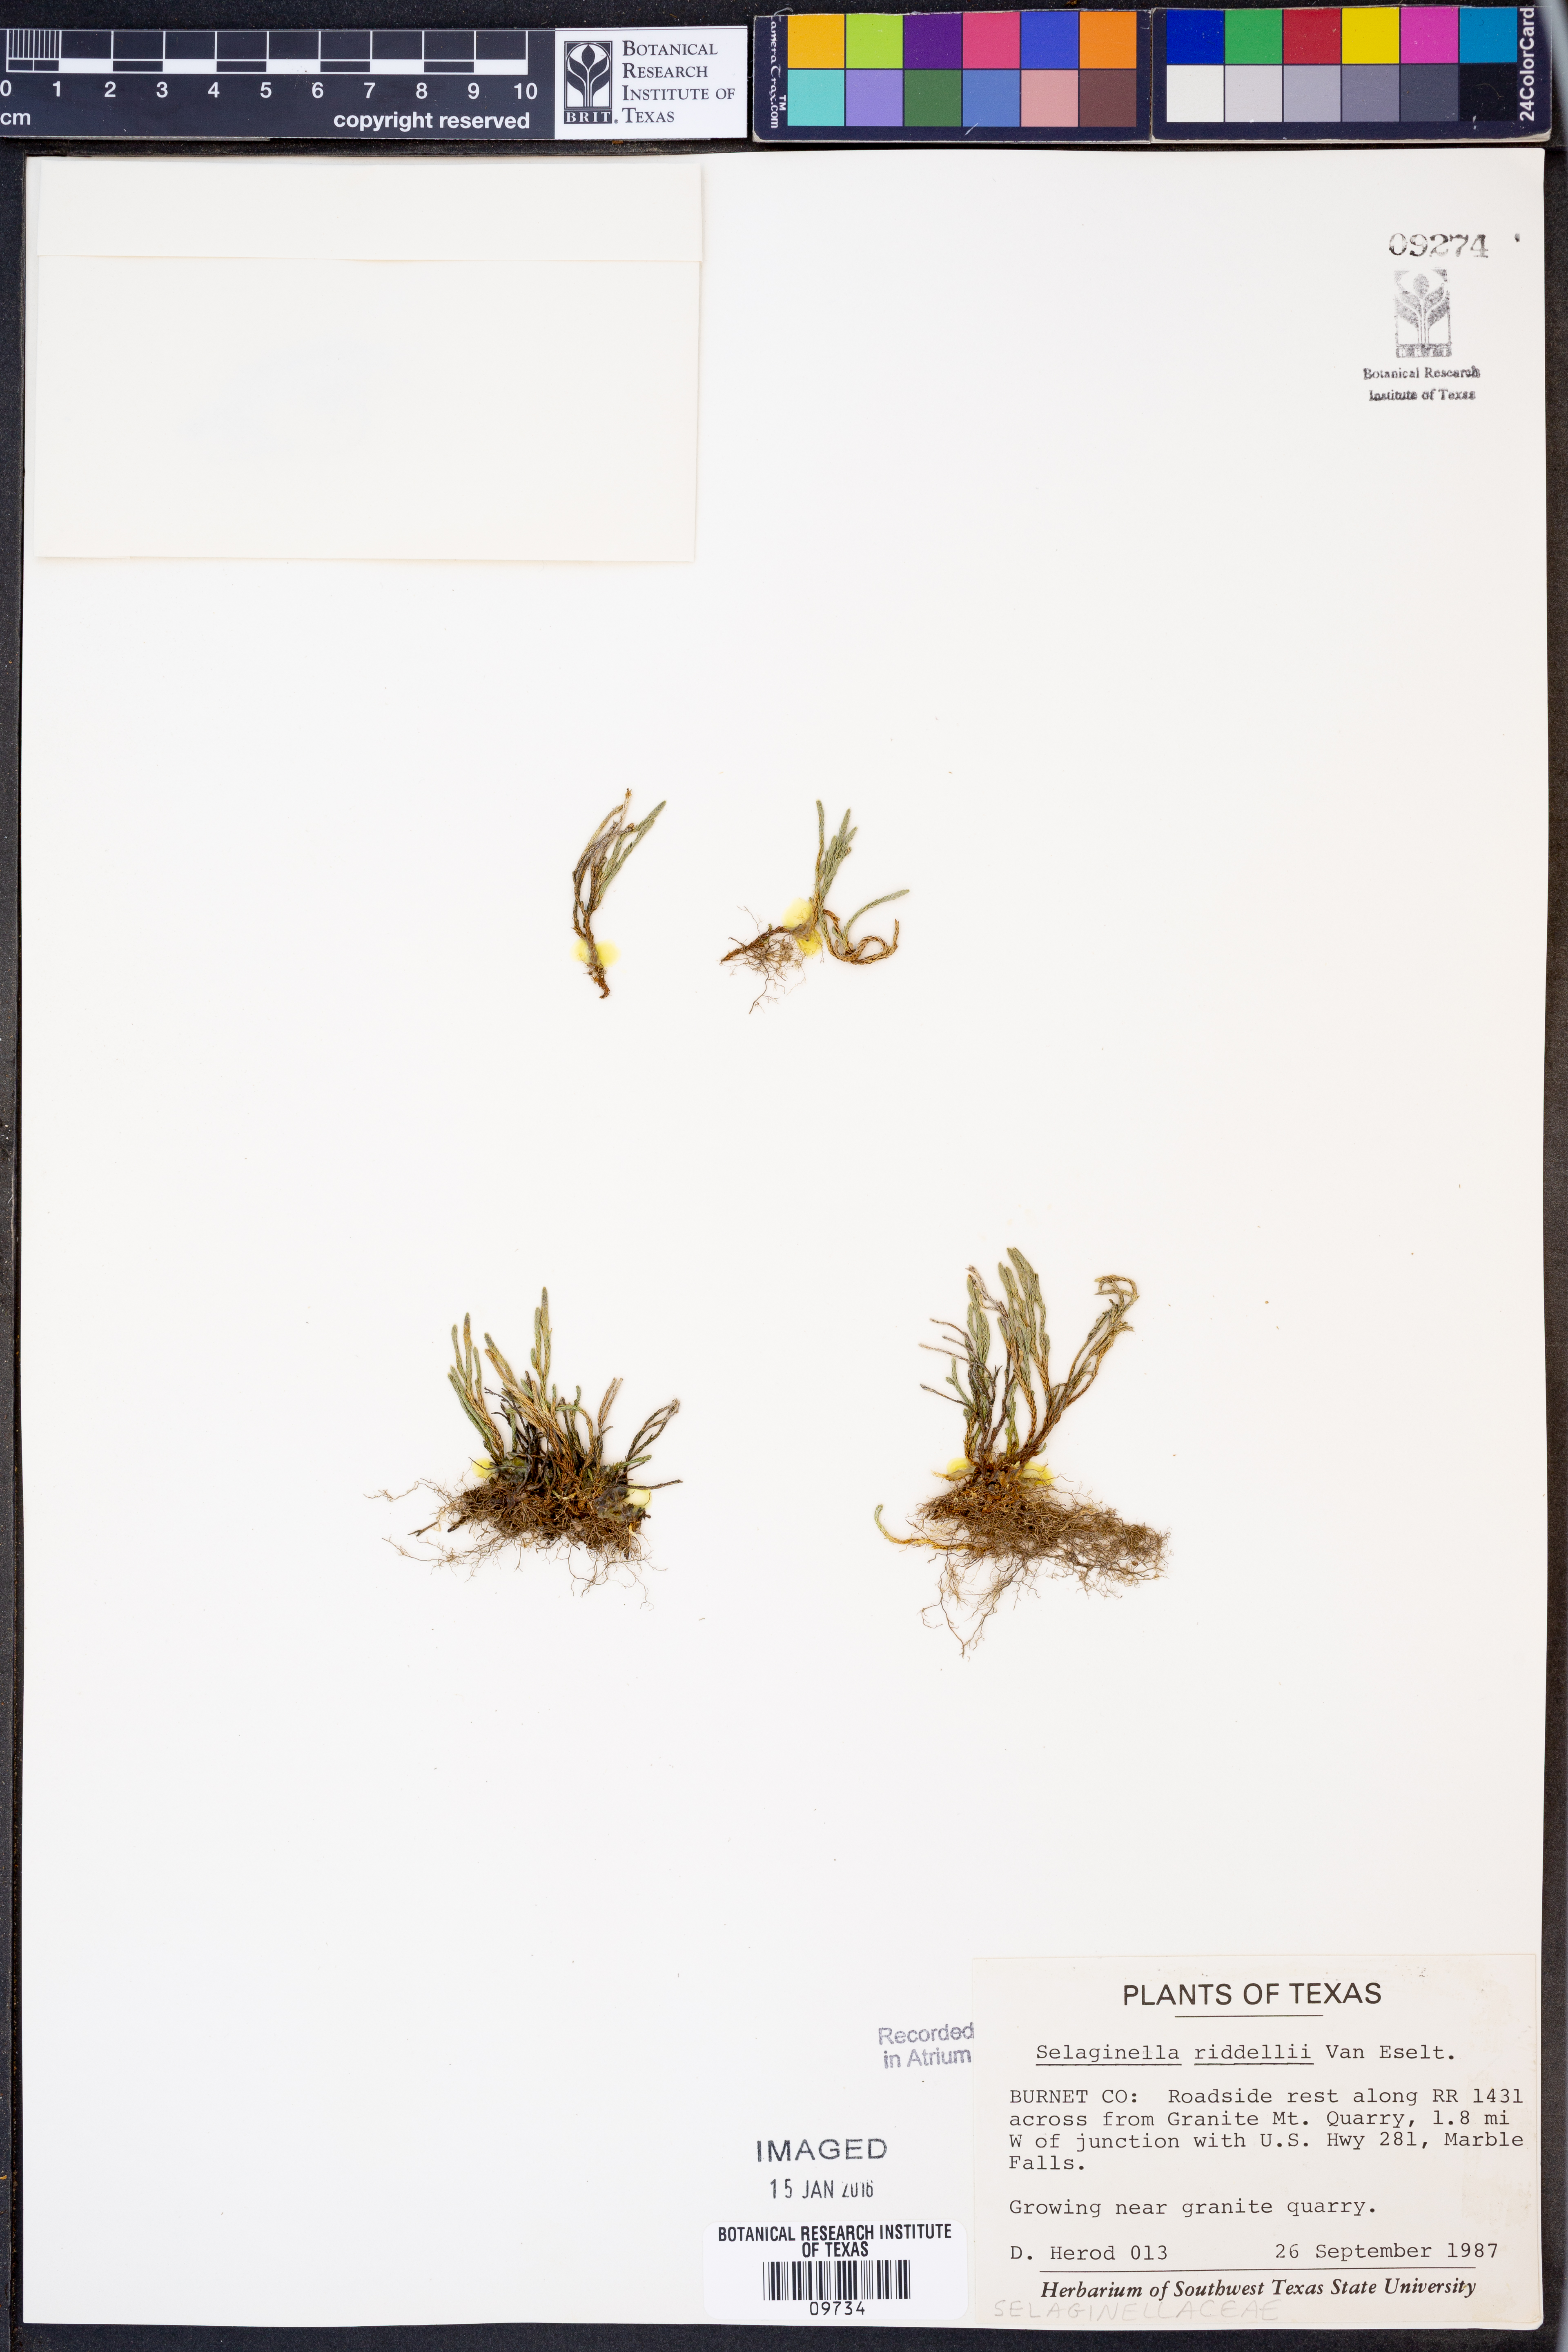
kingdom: Plantae
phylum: Tracheophyta
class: Lycopodiopsida
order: Selaginellales
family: Selaginellaceae
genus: Selaginella
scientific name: Selaginella corallina
